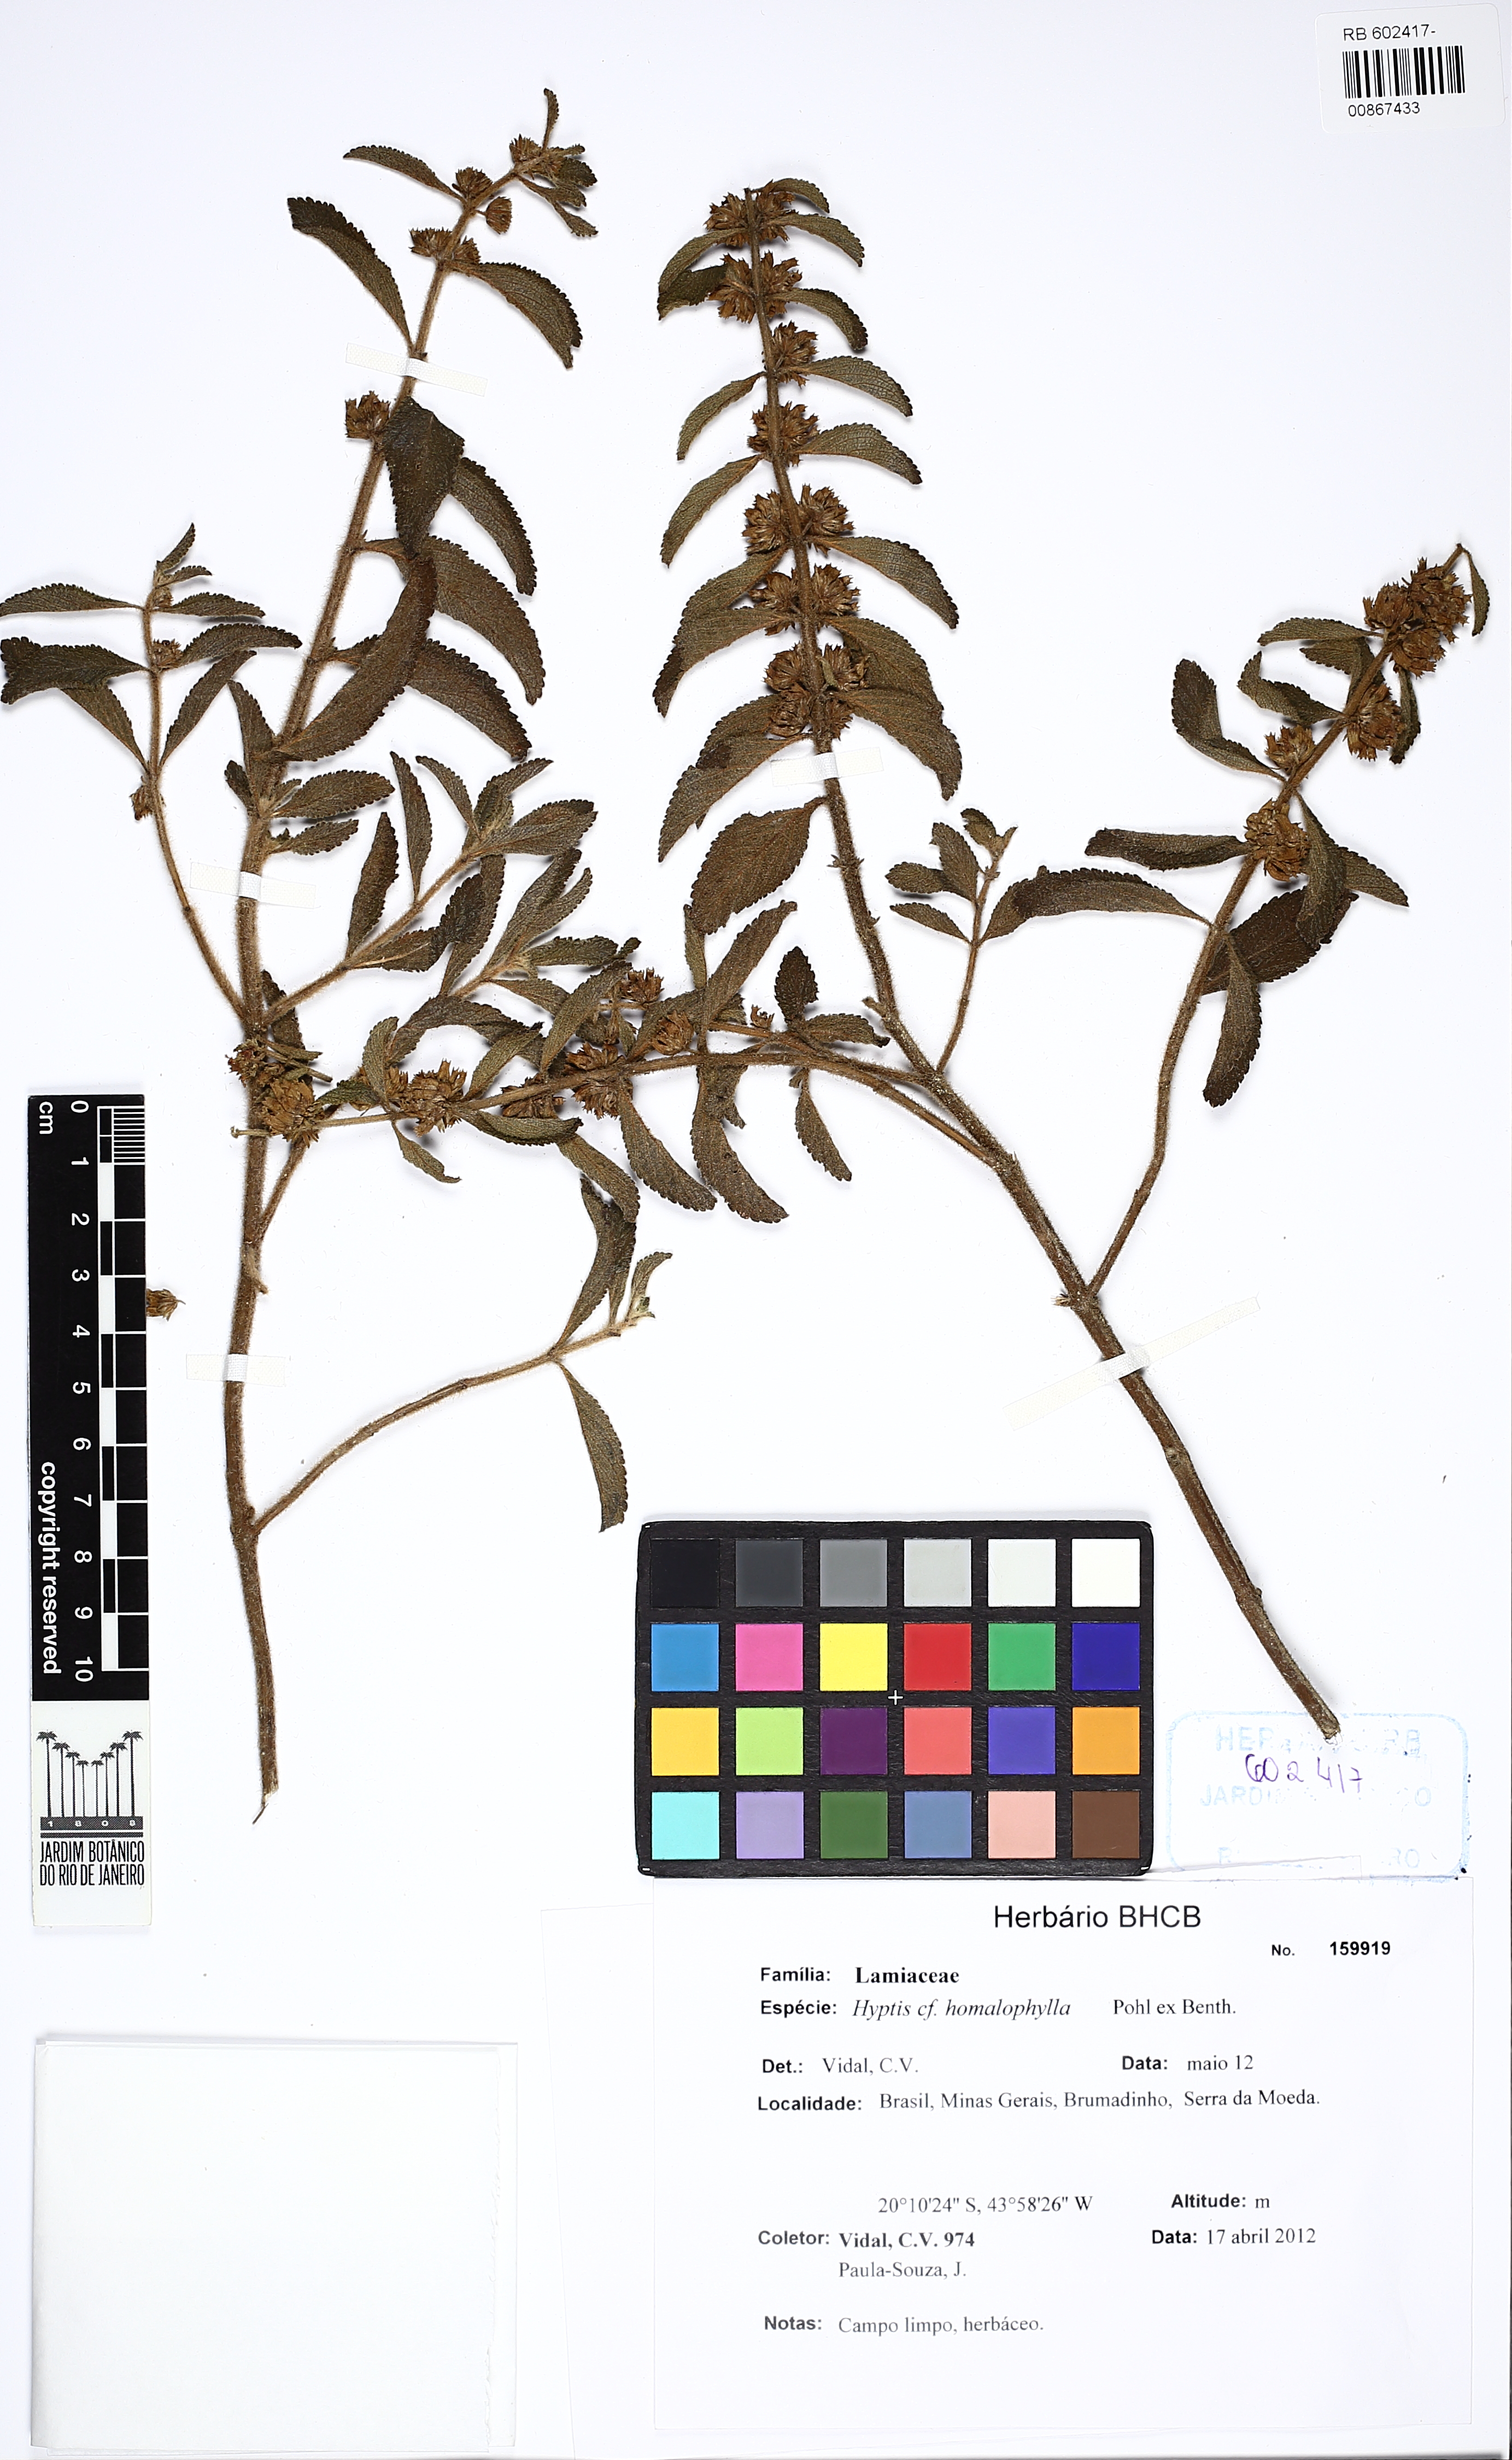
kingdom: Plantae
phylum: Tracheophyta
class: Magnoliopsida
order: Lamiales
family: Lamiaceae
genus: Hyptis
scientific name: Hyptis homalophylla
